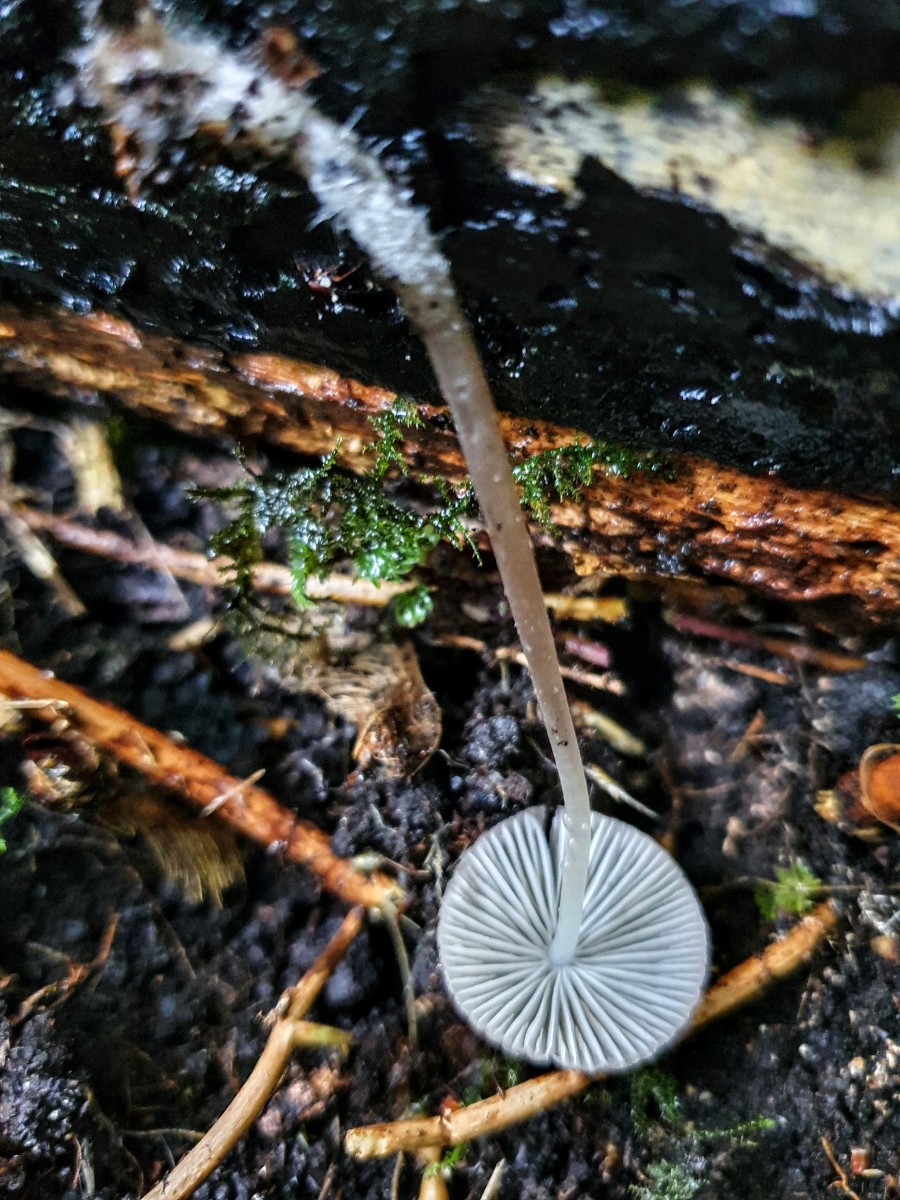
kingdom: Fungi
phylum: Basidiomycota
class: Agaricomycetes
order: Agaricales
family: Mycenaceae
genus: Mycena
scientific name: Mycena
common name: huesvamp
